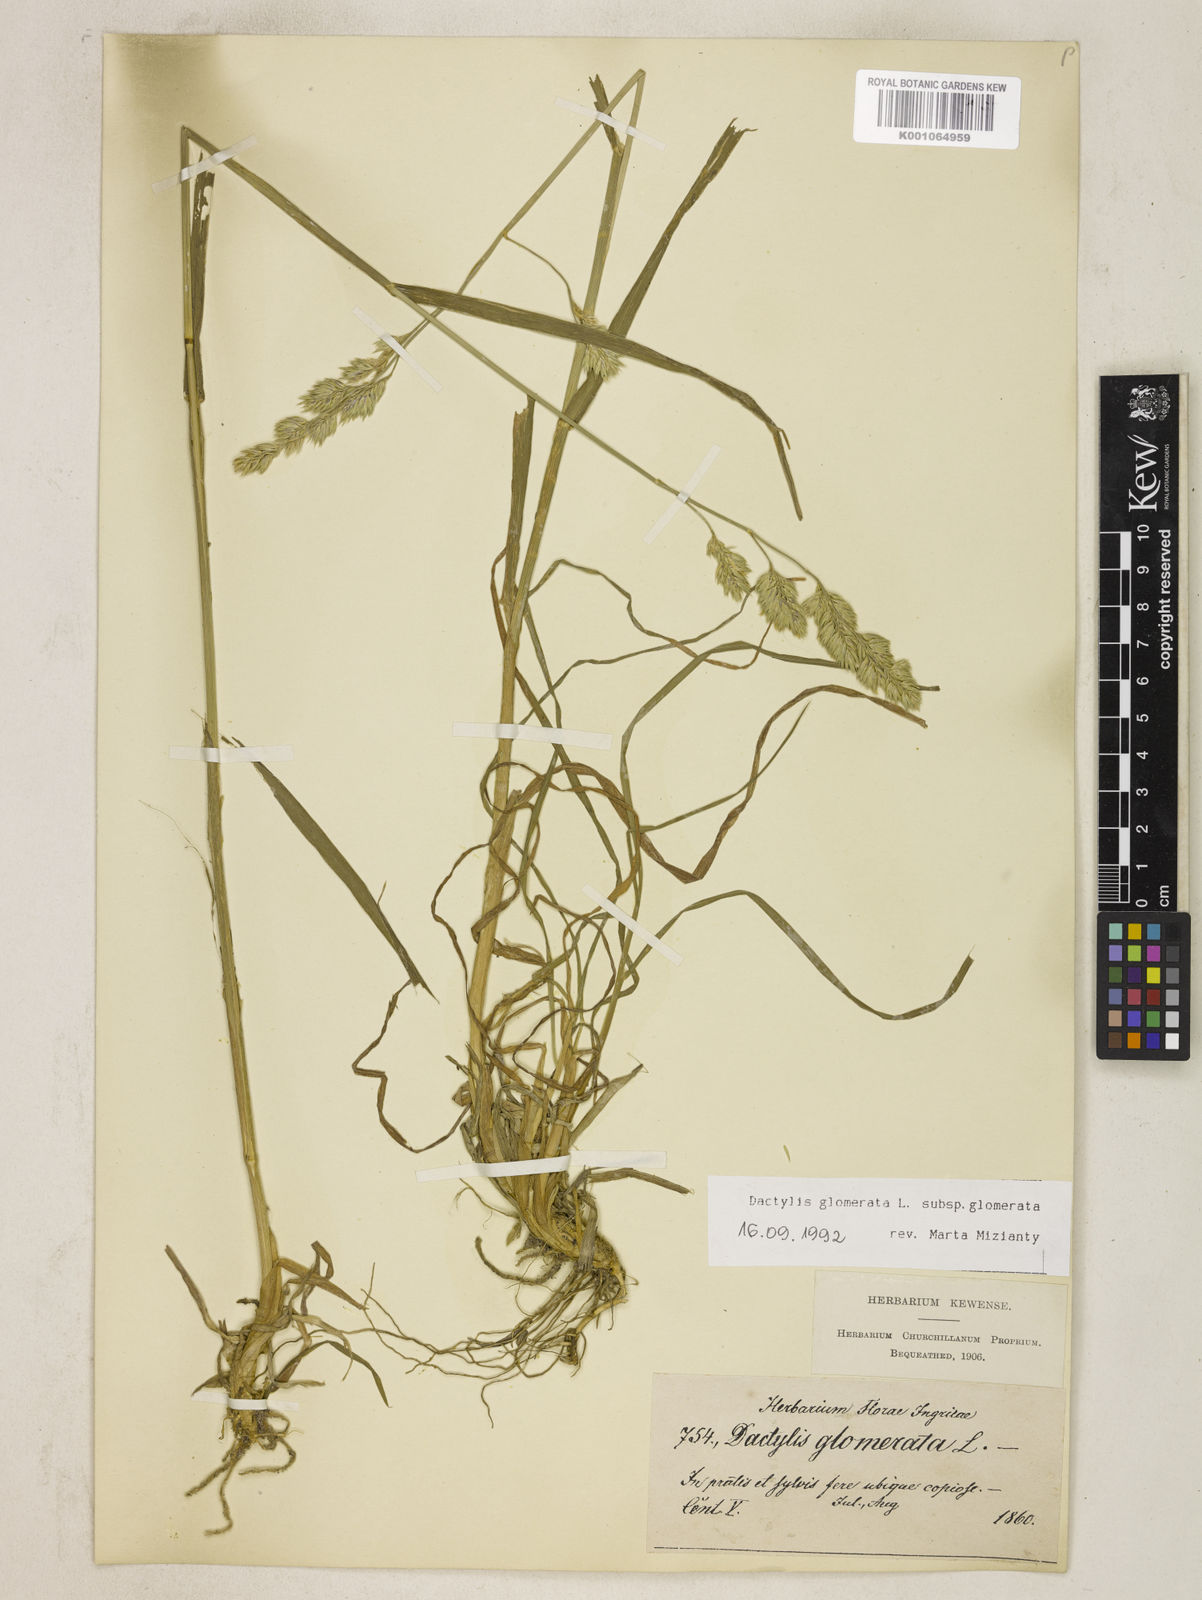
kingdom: Plantae
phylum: Tracheophyta
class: Liliopsida
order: Poales
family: Poaceae
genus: Dactylis
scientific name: Dactylis glomerata
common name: Orchardgrass
